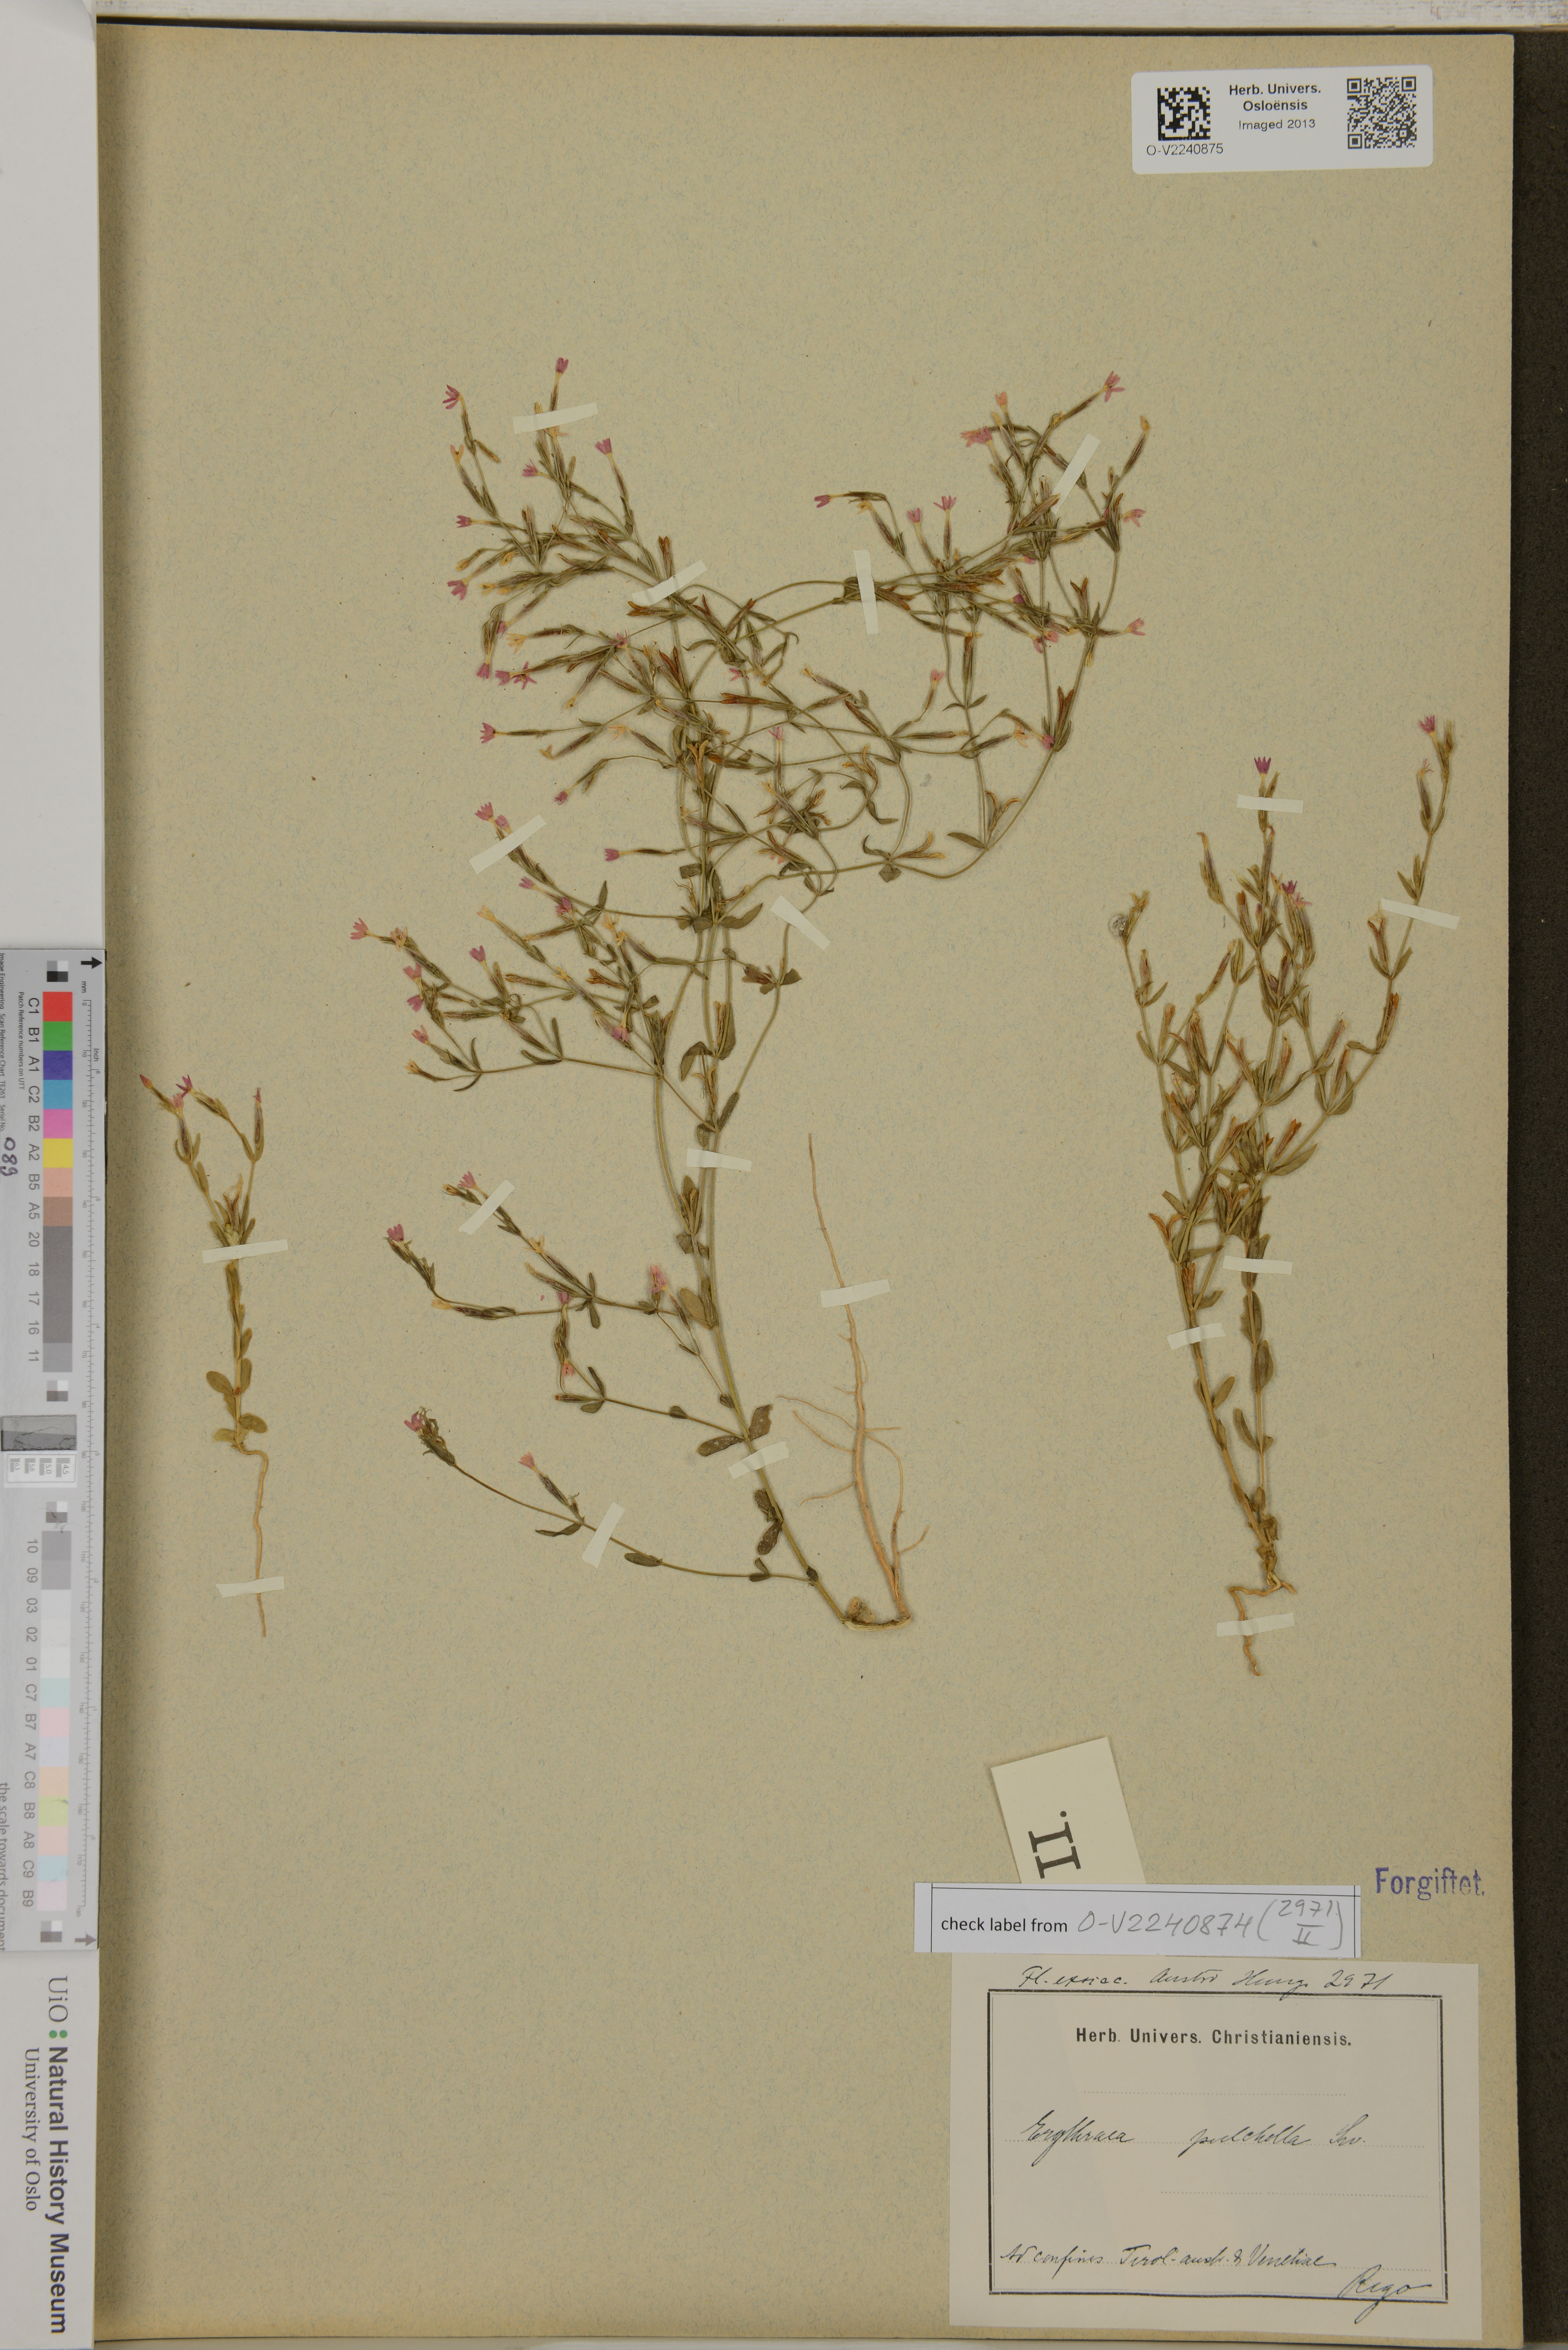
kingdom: Plantae
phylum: Tracheophyta
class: Magnoliopsida
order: Gentianales
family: Gentianaceae
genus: Centaurium
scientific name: Centaurium pulchellum
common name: Lesser centaury
